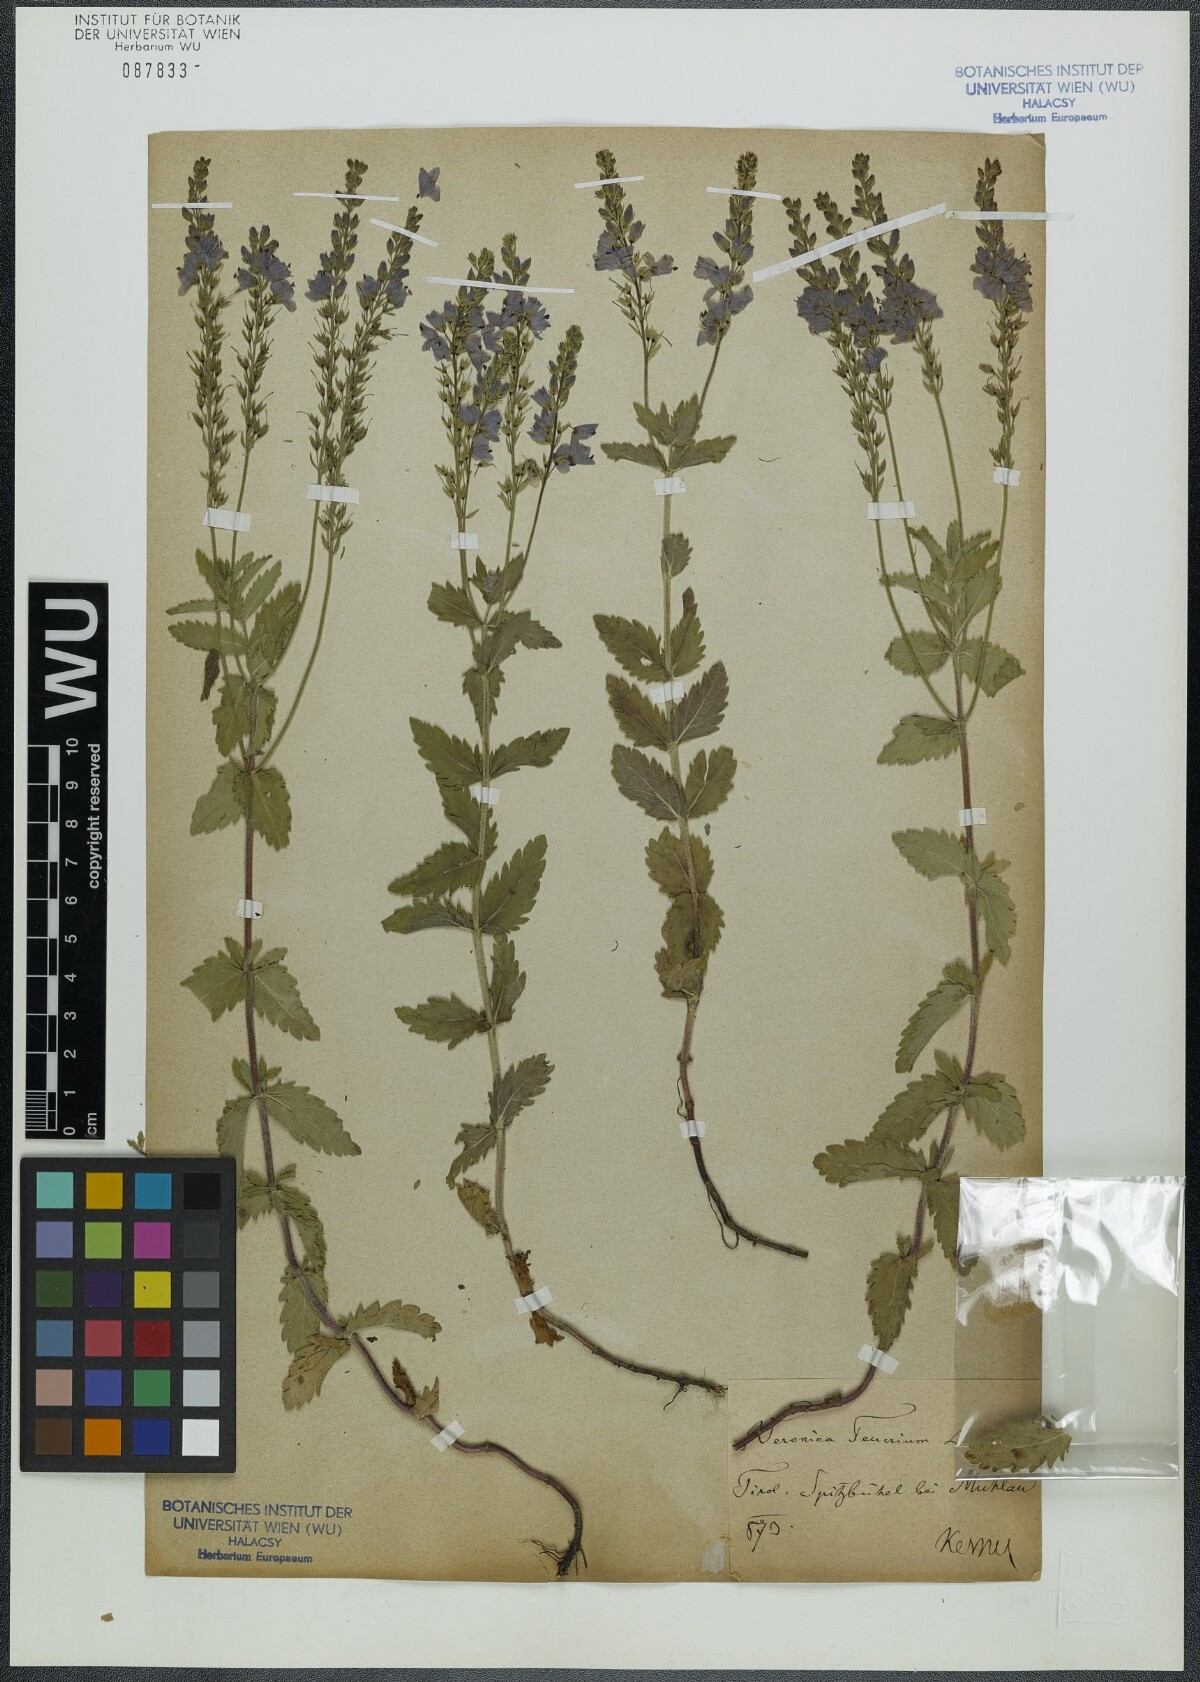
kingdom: Plantae
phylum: Tracheophyta
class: Magnoliopsida
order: Lamiales
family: Plantaginaceae
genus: Veronica
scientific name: Veronica teucrium
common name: Large speedwell
